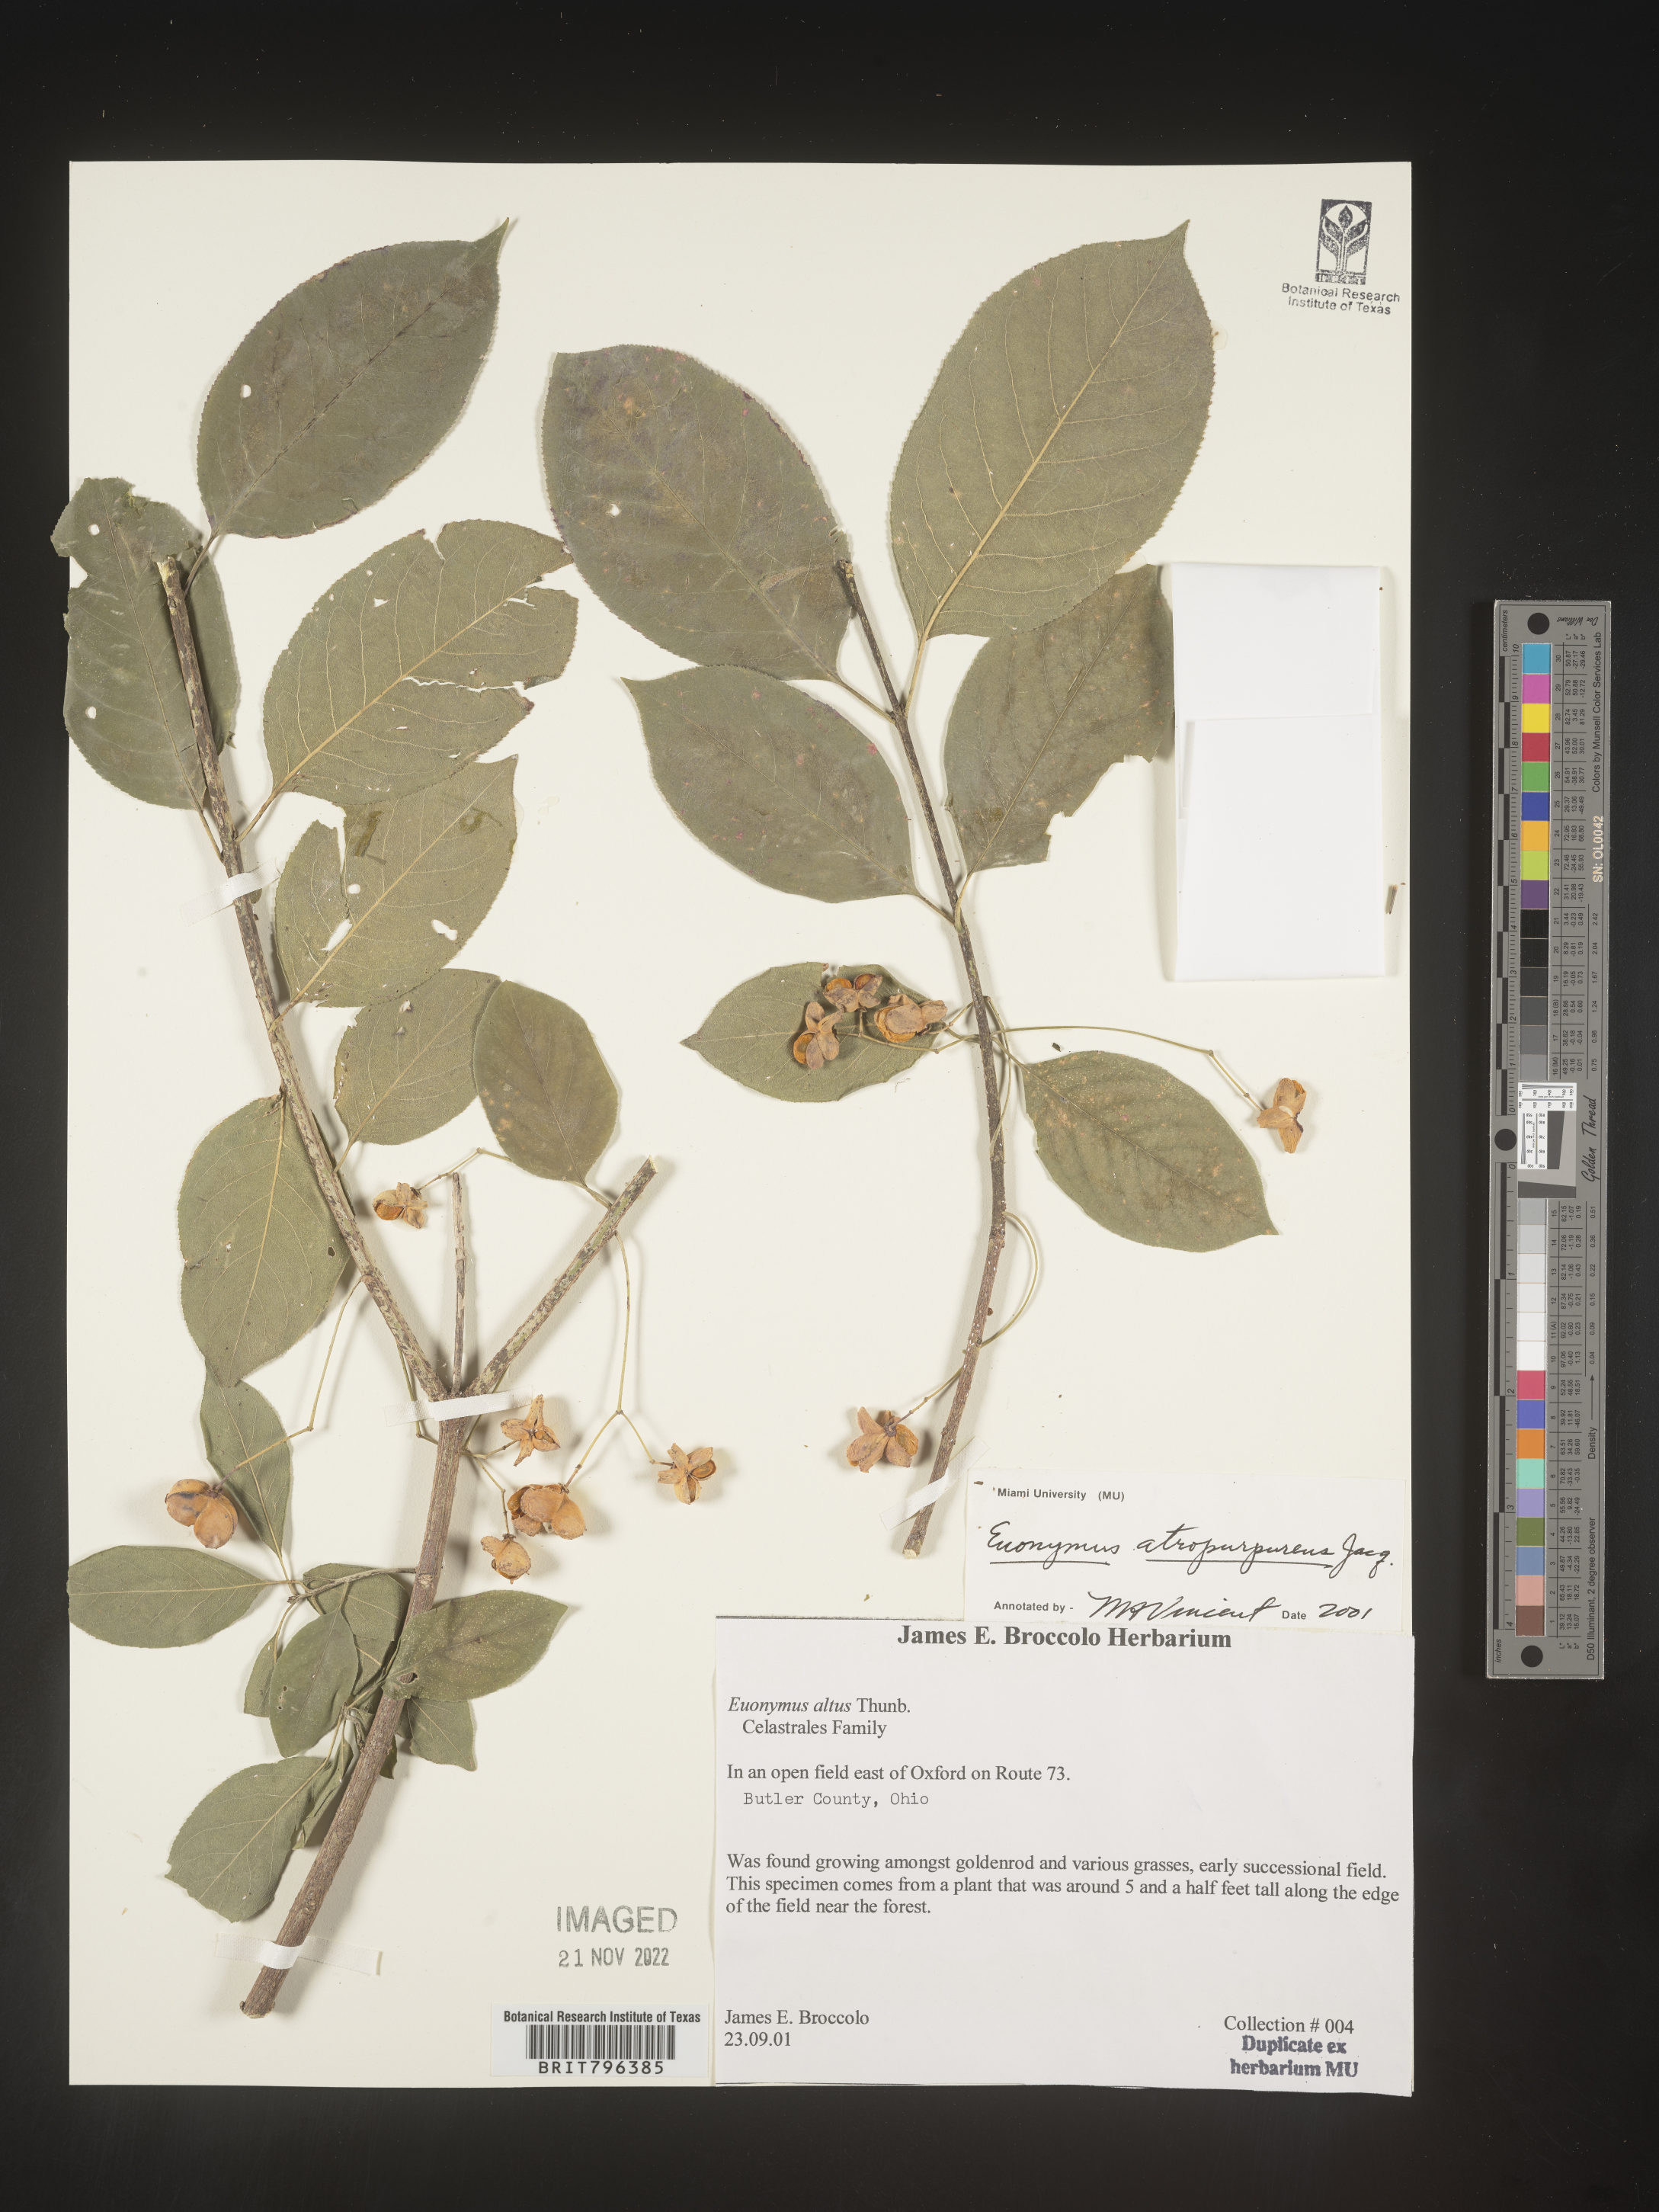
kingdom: Plantae
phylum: Tracheophyta
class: Magnoliopsida
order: Celastrales
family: Celastraceae
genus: Euonymus
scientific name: Euonymus atropurpureus
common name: Eastern wahoo
